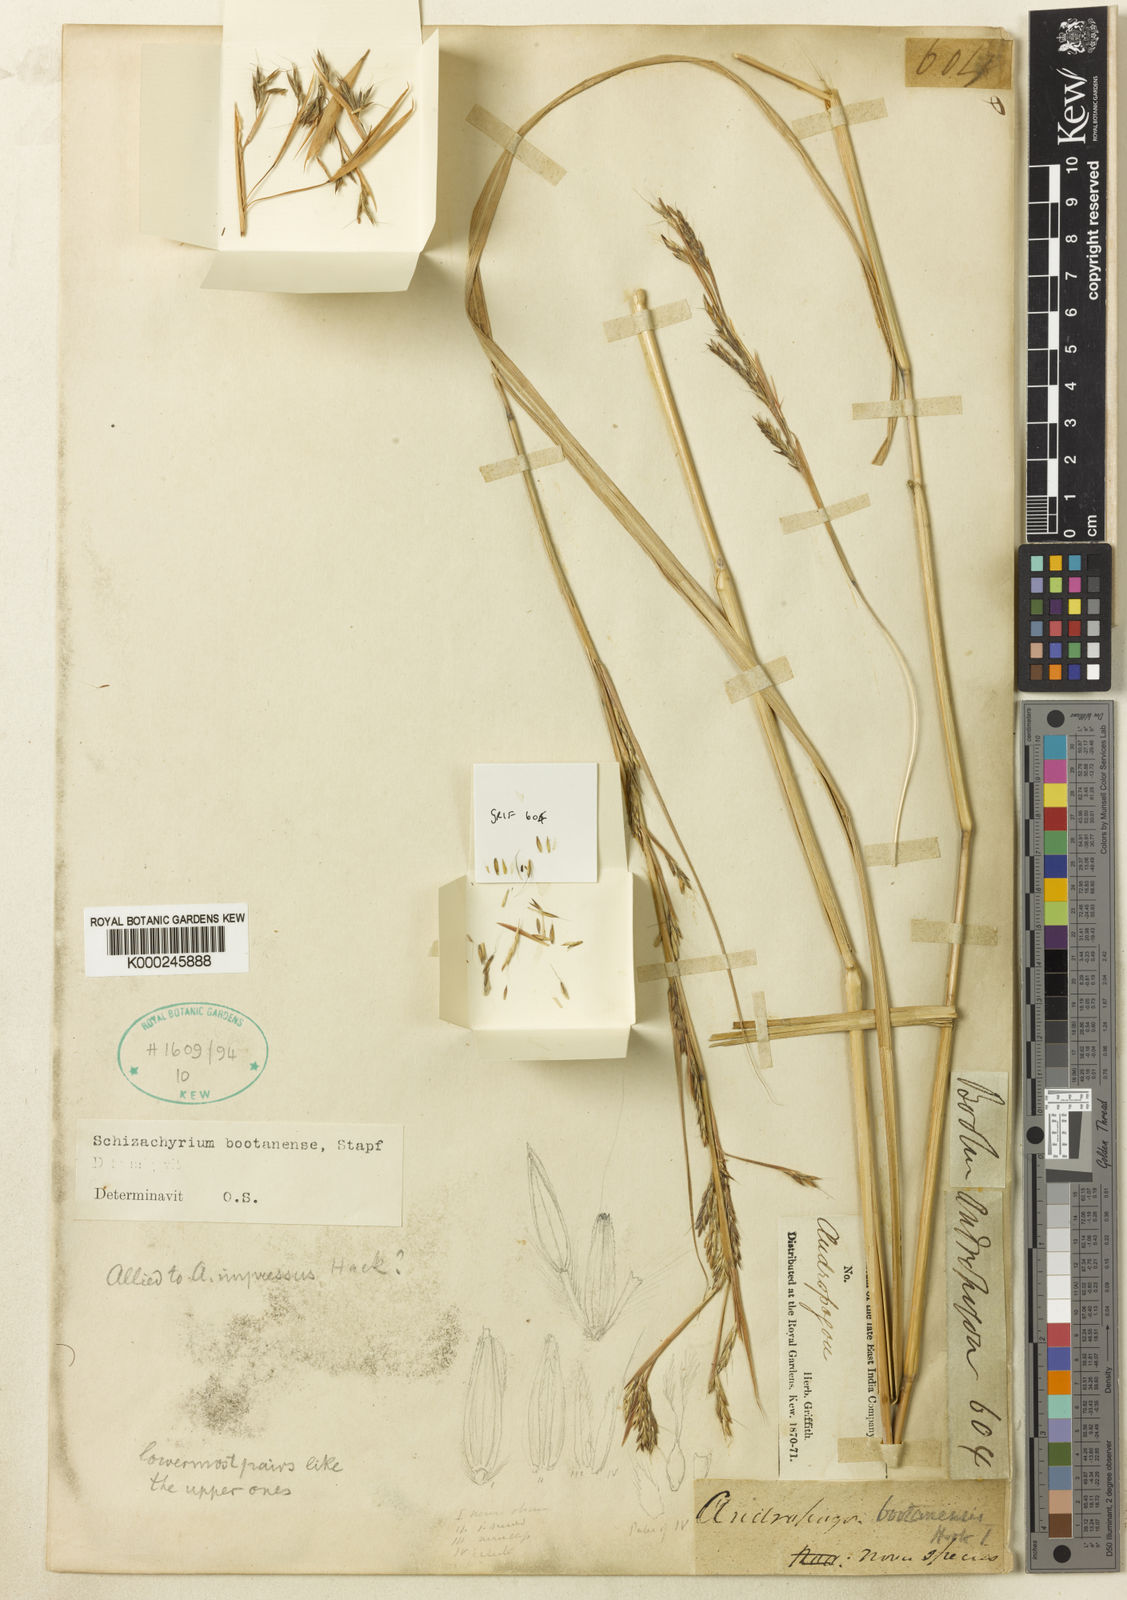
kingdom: Plantae
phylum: Tracheophyta
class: Liliopsida
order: Poales
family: Poaceae
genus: Schizachyrium
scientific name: Schizachyrium delavayi
